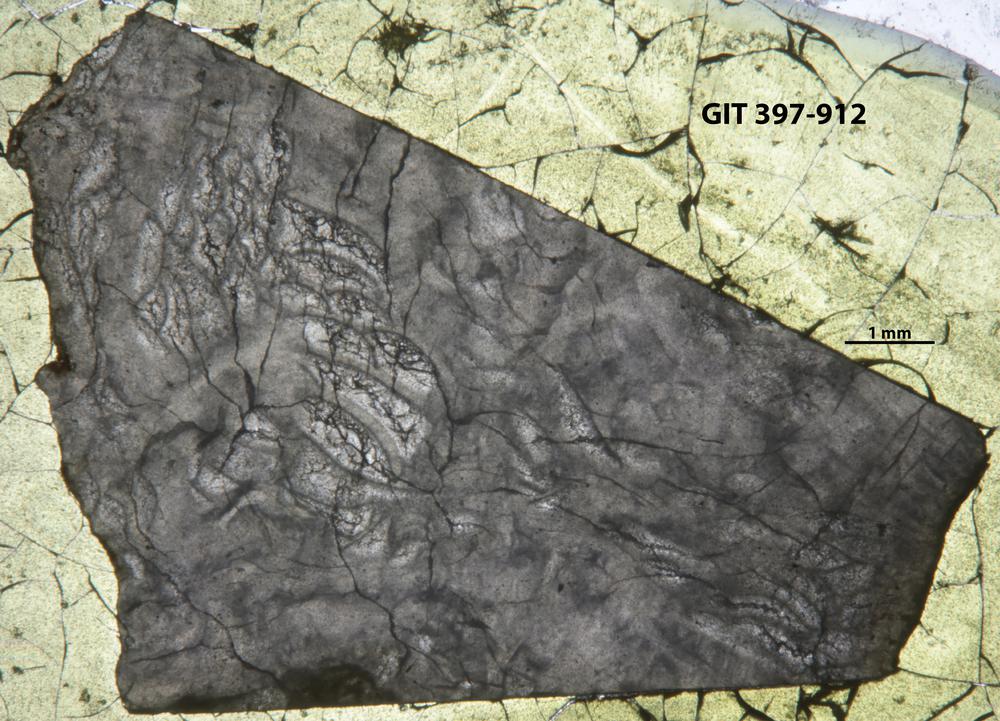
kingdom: Animalia
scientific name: Animalia
